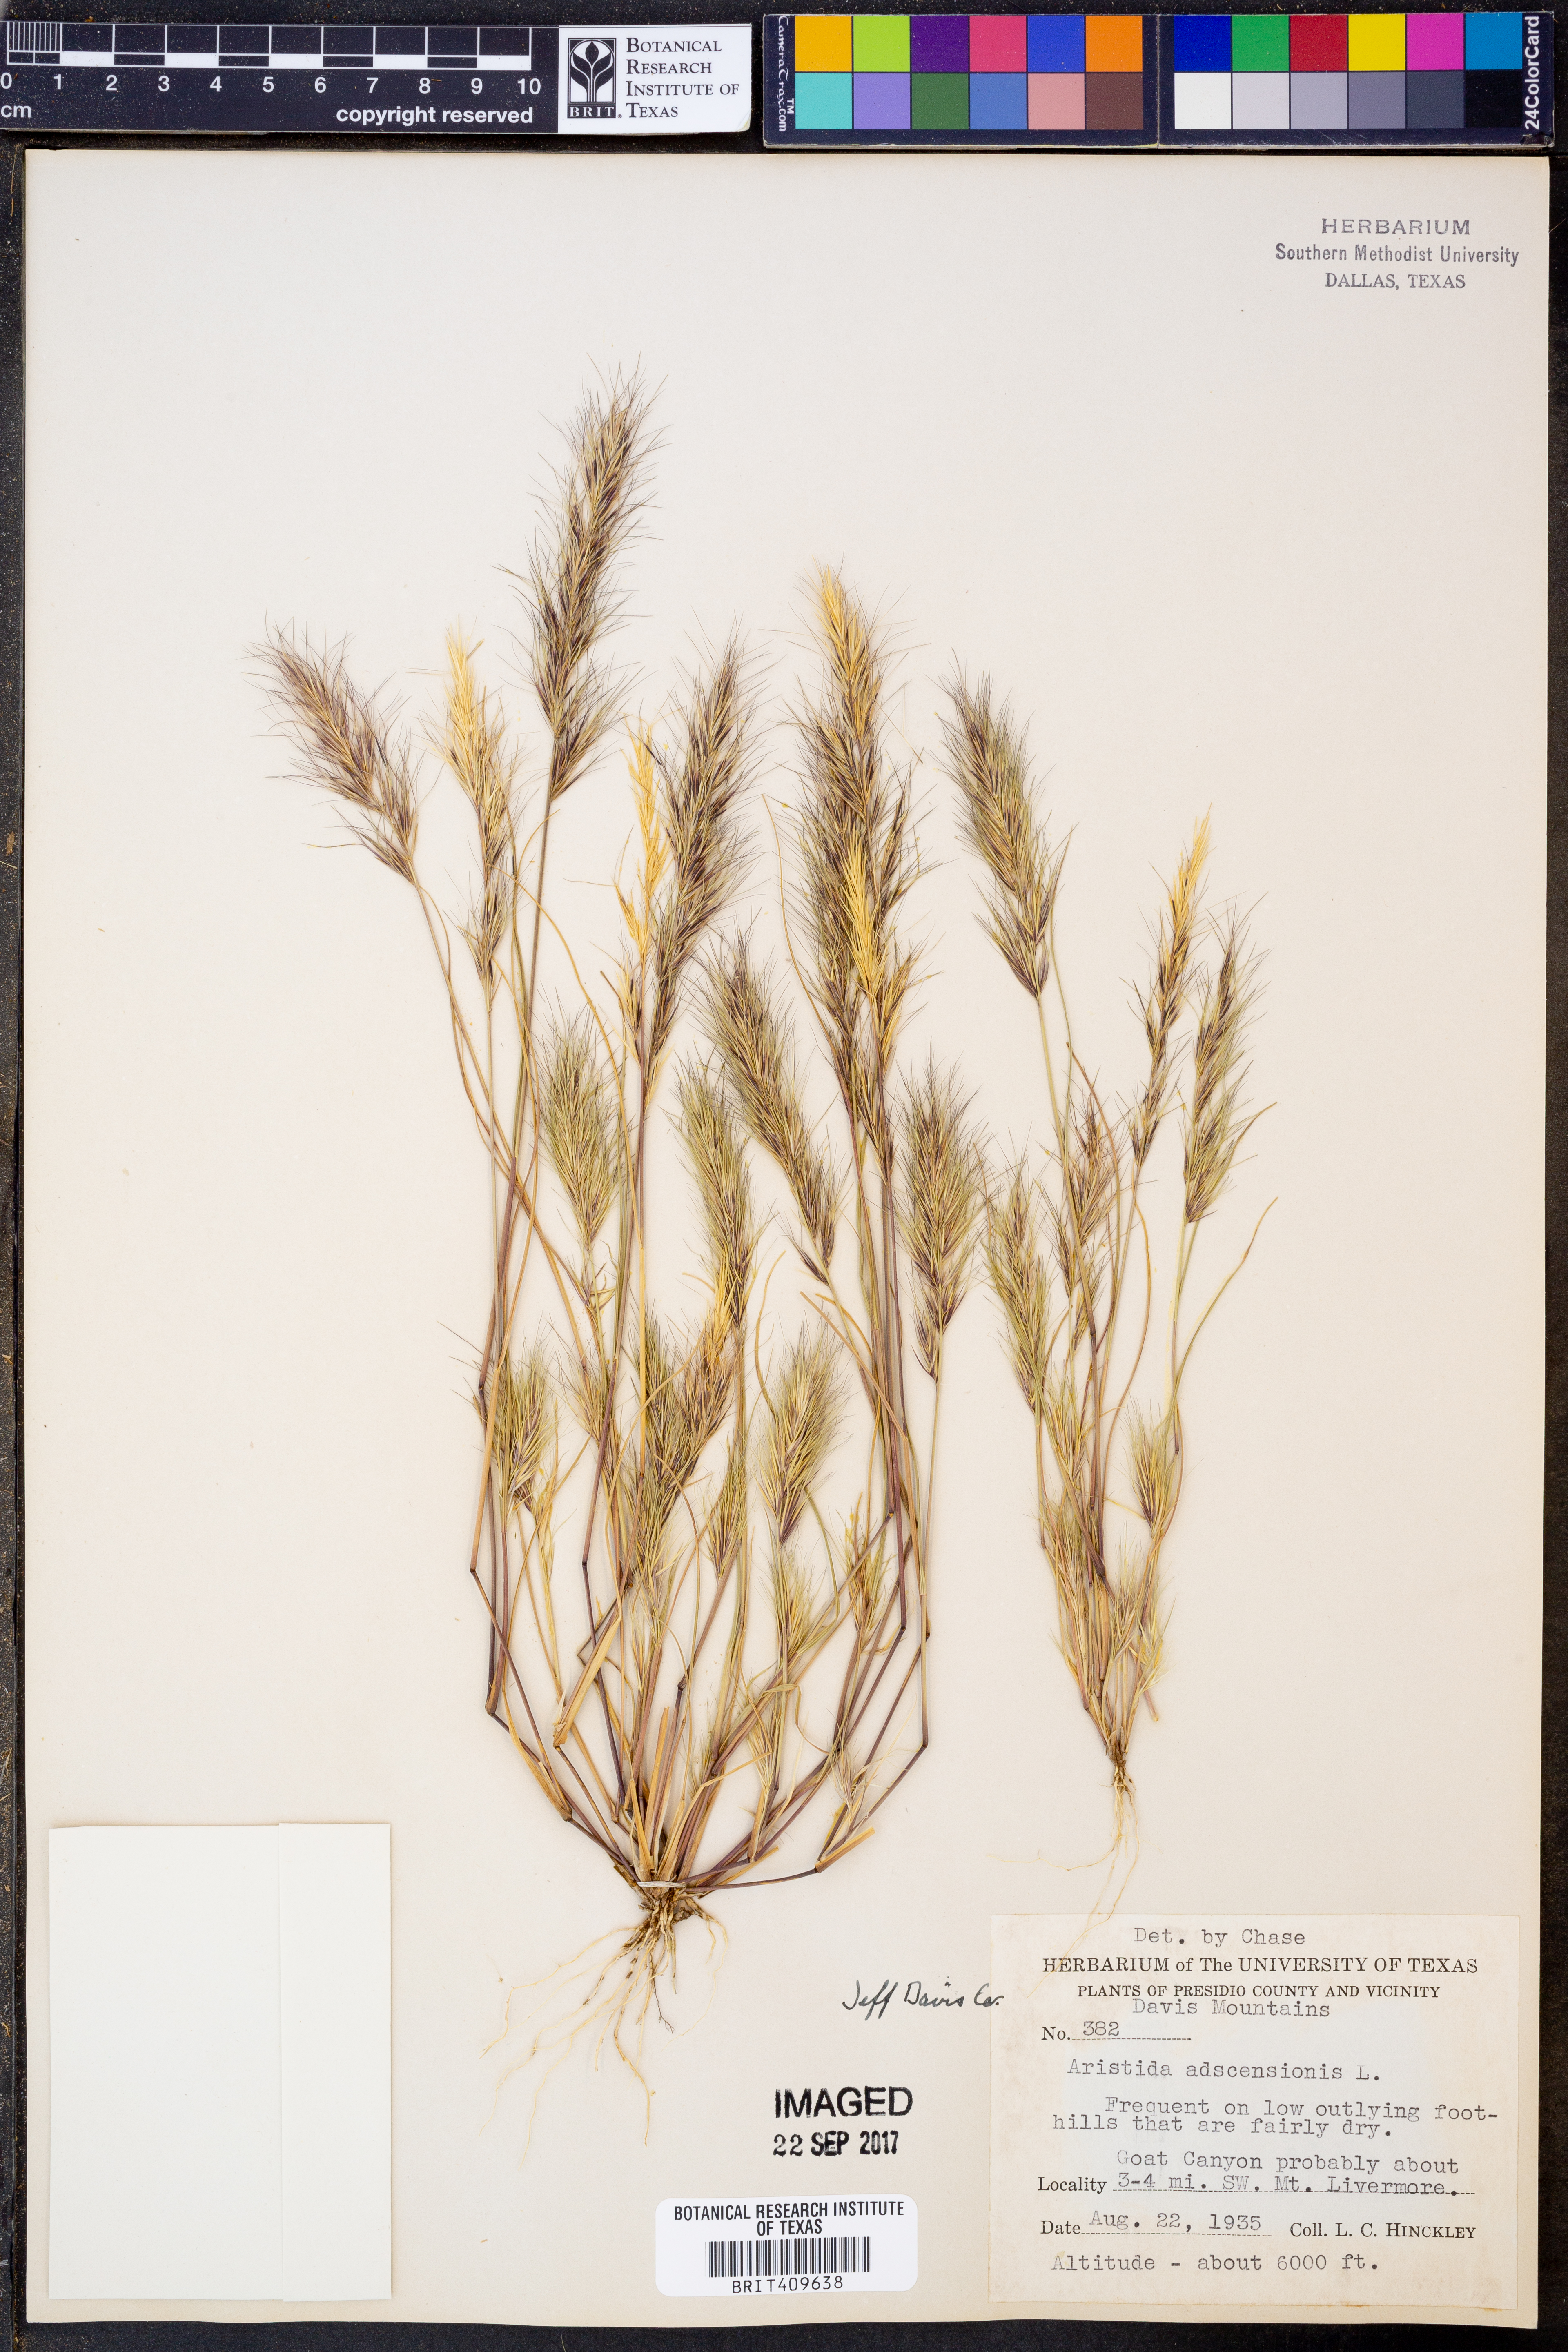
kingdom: Plantae
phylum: Tracheophyta
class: Liliopsida
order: Poales
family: Poaceae
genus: Aristida
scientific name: Aristida adscensionis
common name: Sixweeks threeawn
